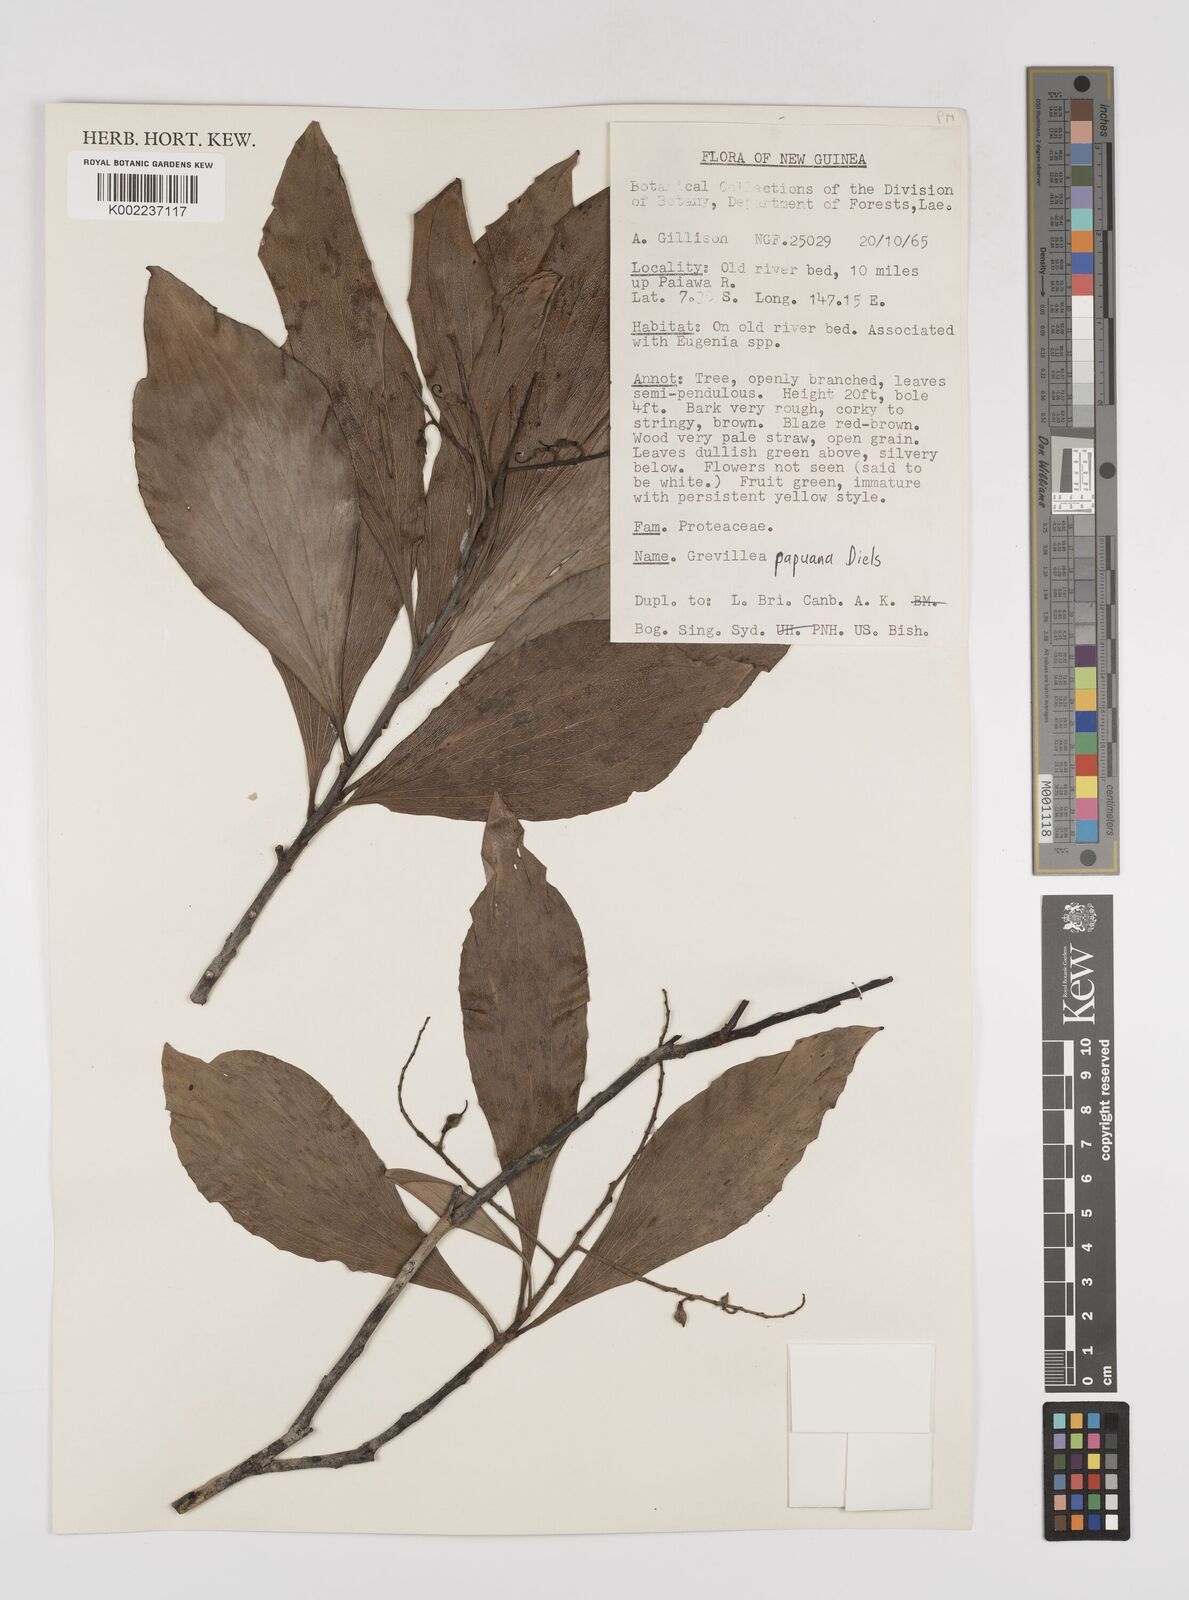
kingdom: Plantae
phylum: Tracheophyta
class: Magnoliopsida
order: Proteales
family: Proteaceae
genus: Grevillea
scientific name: Grevillea papuana
